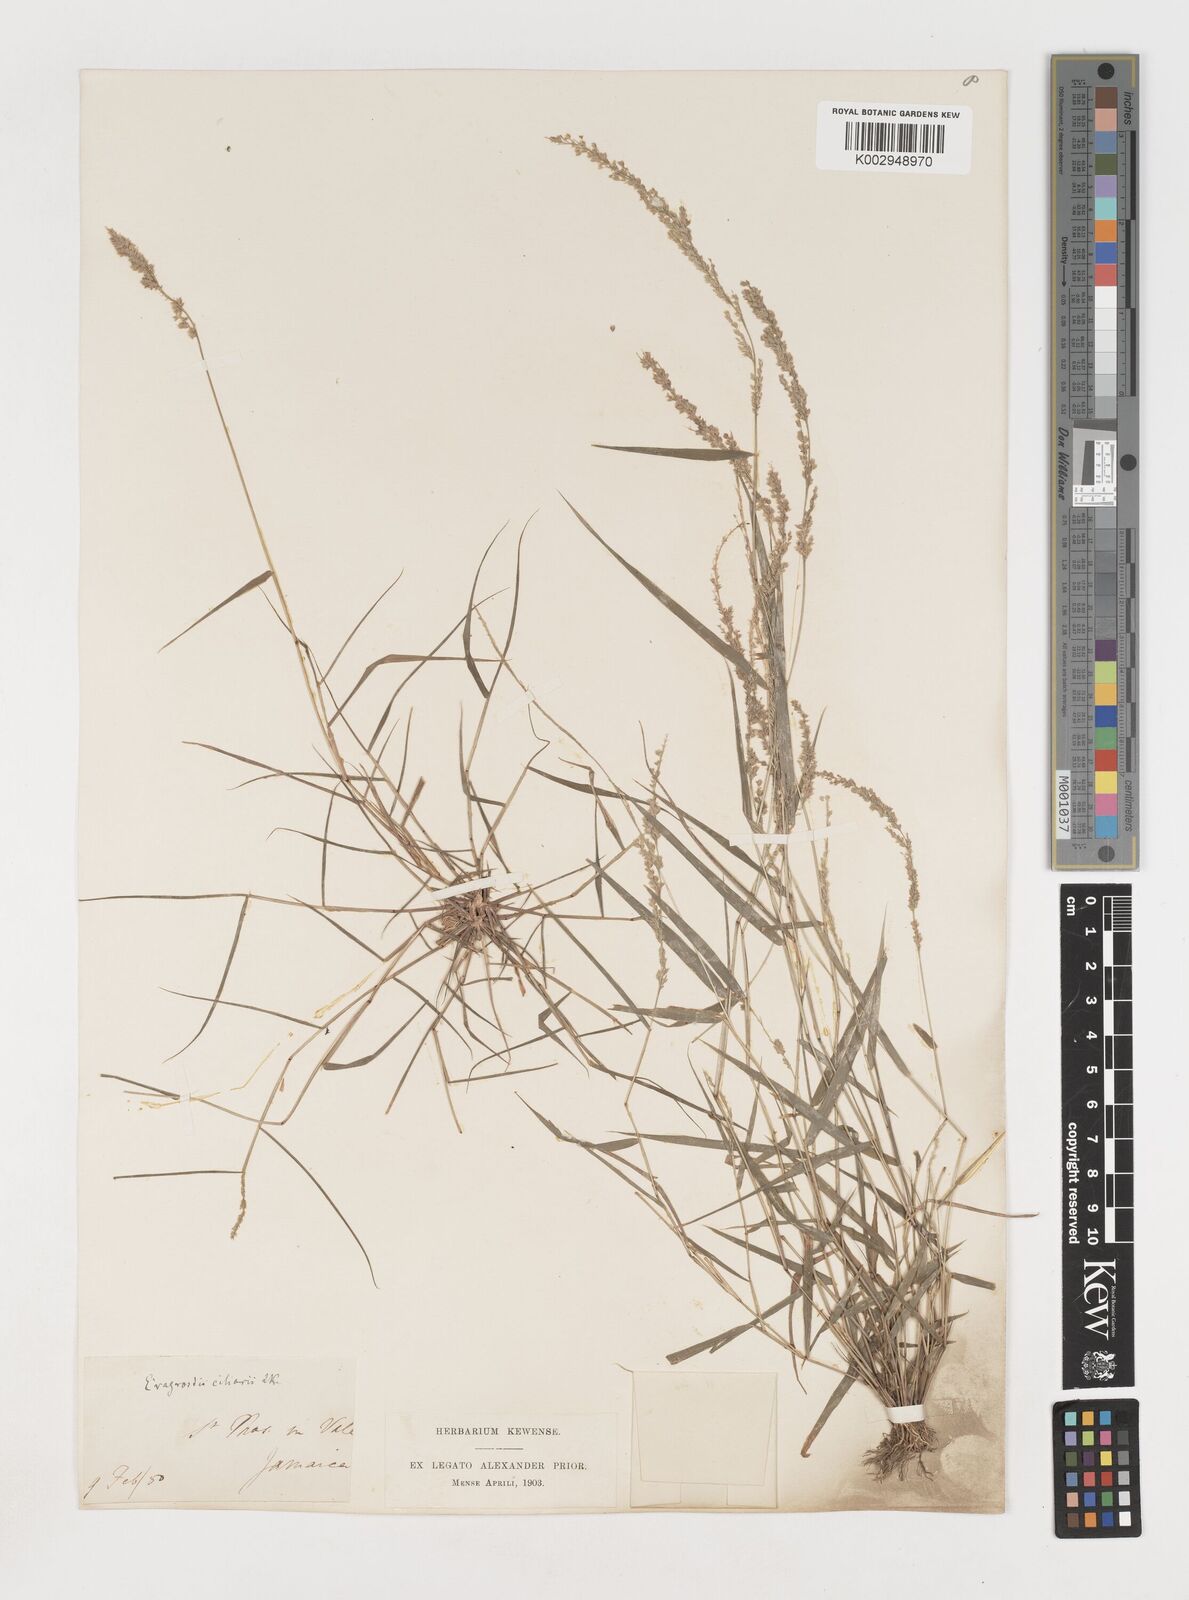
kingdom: Plantae
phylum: Tracheophyta
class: Liliopsida
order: Poales
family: Poaceae
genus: Eragrostis
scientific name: Eragrostis ciliaris
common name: Gophertail lovegrass
